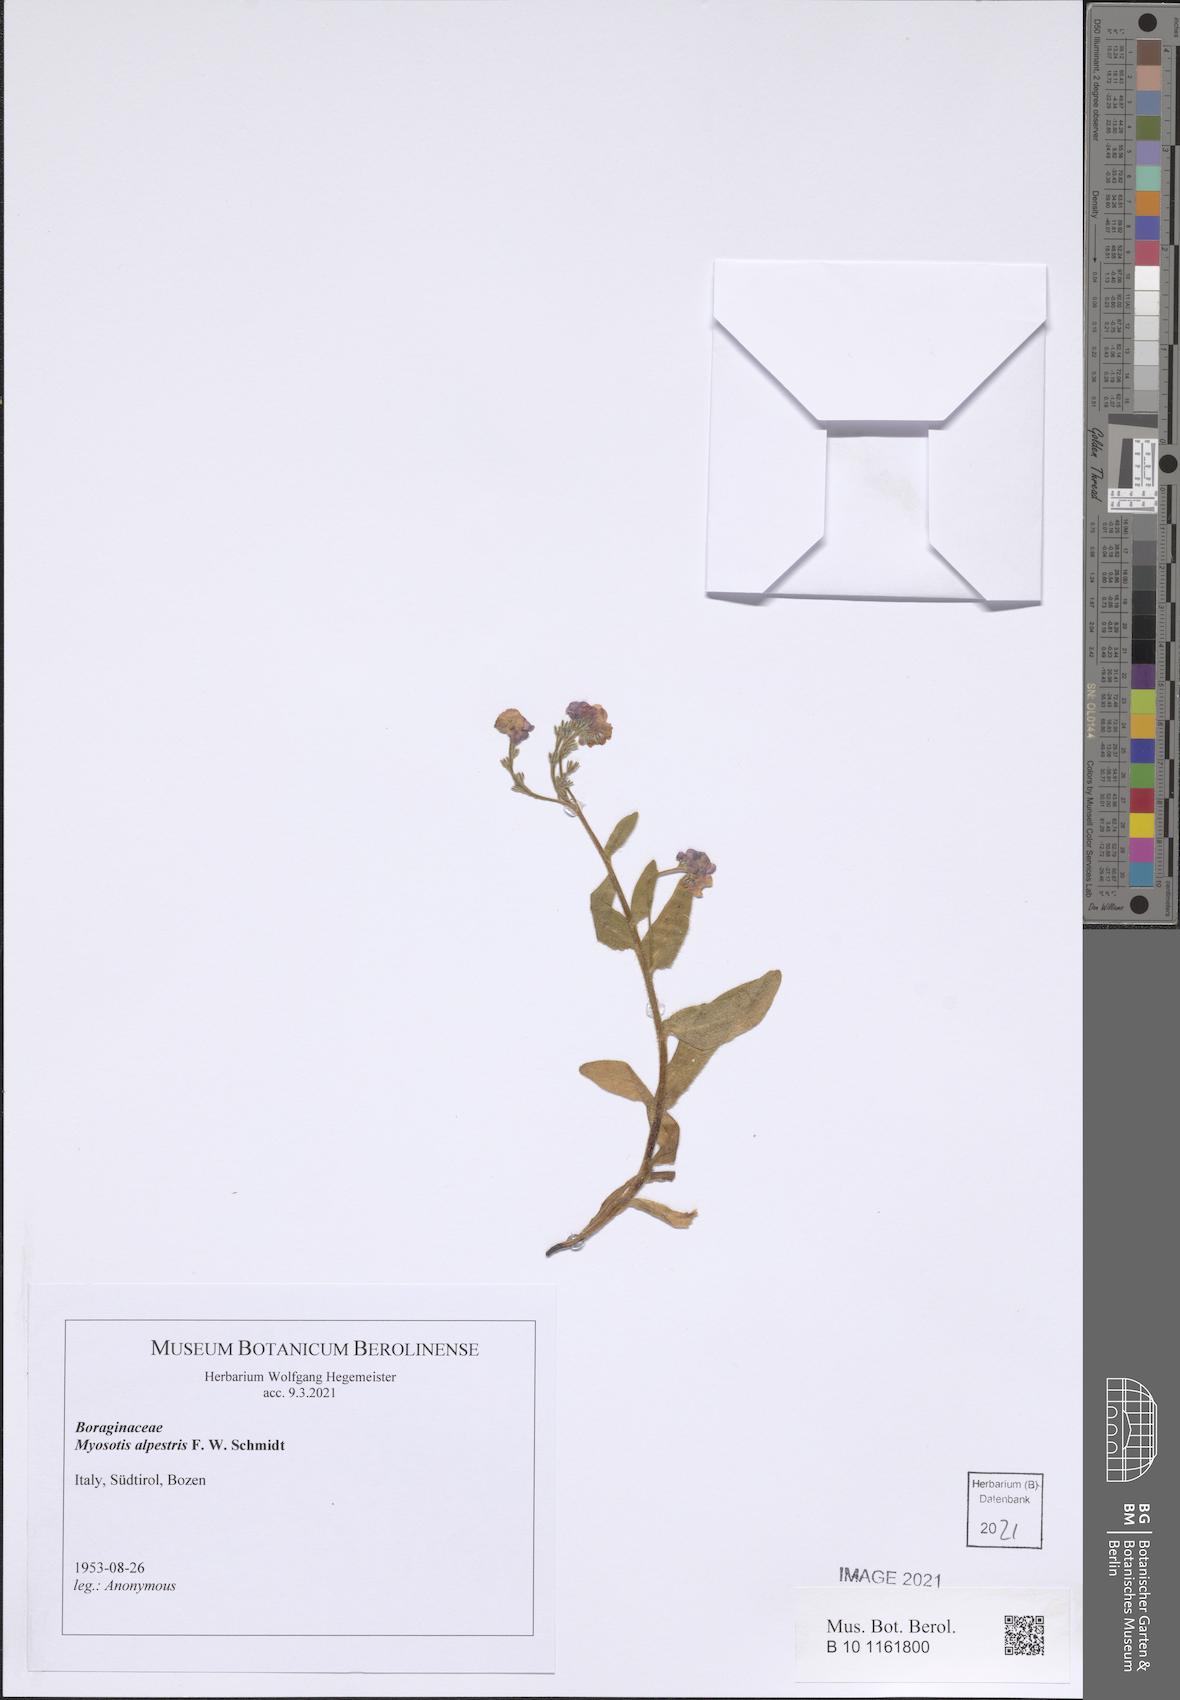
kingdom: Plantae
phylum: Tracheophyta
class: Magnoliopsida
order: Boraginales
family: Boraginaceae
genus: Myosotis
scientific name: Myosotis alpestris
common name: Alpine forget-me-not
